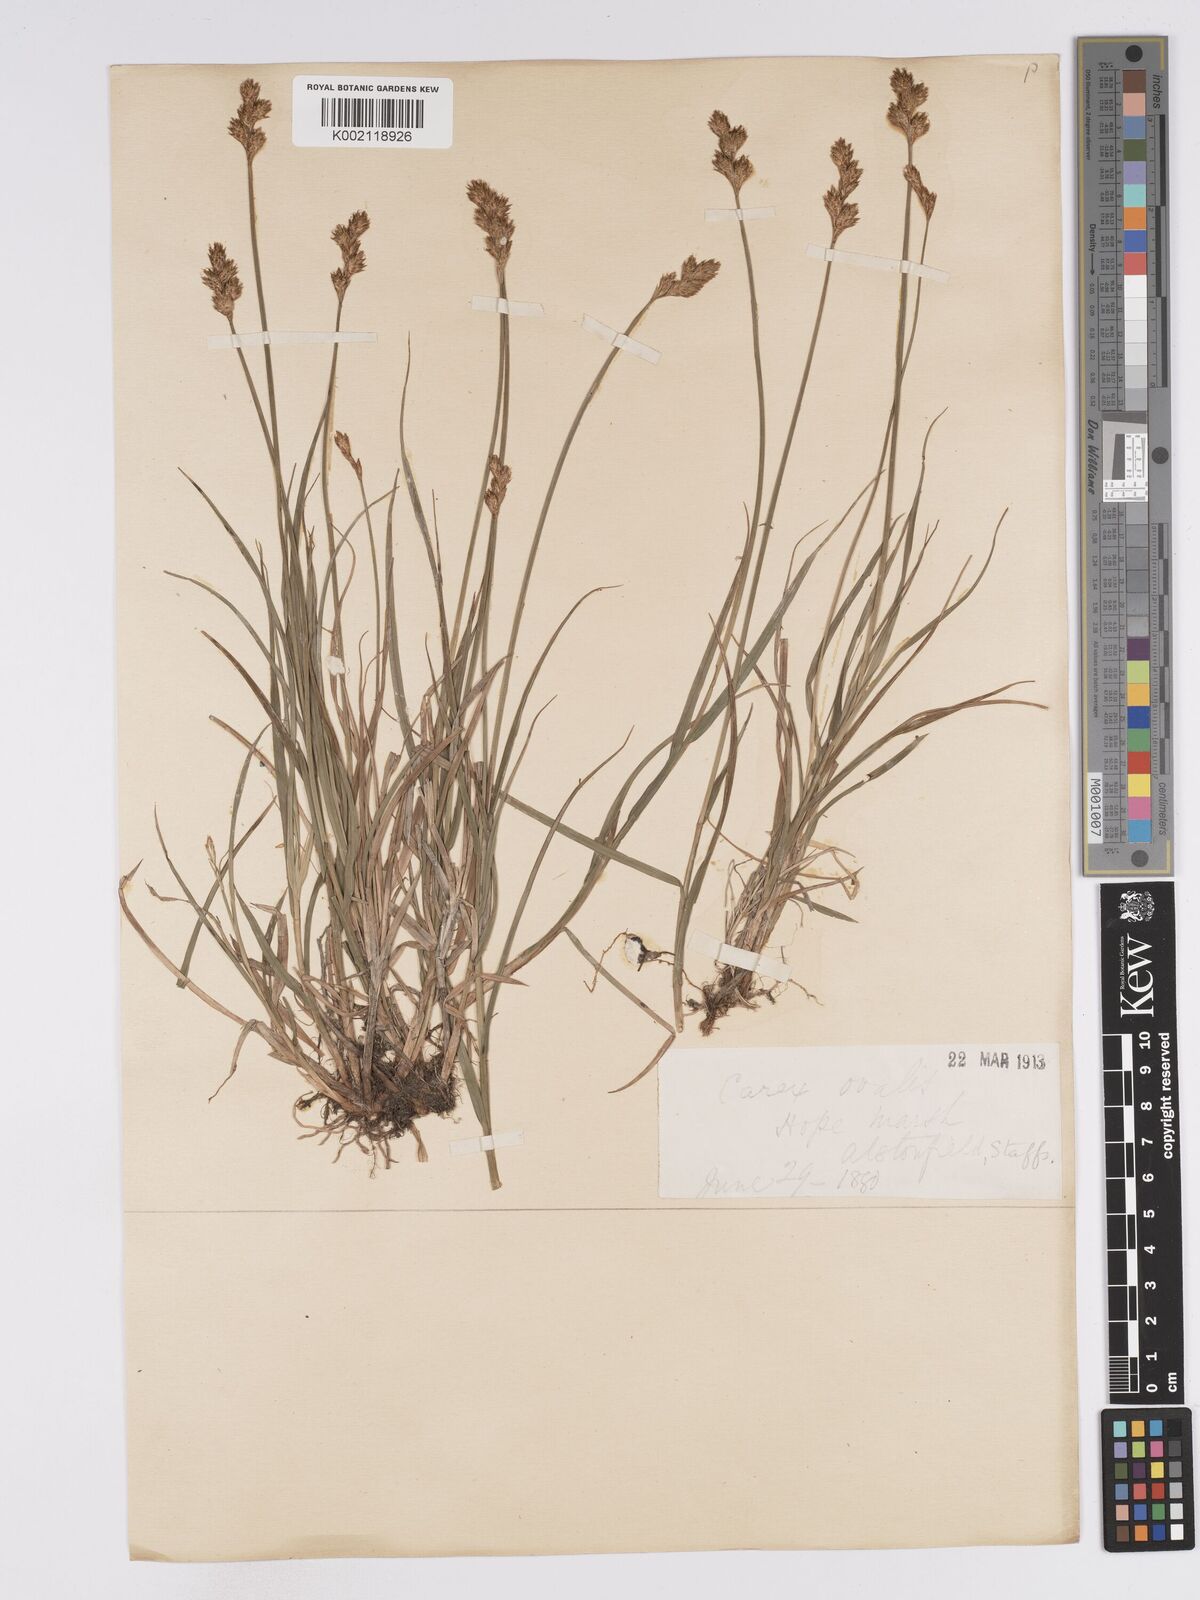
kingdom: Plantae
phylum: Tracheophyta
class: Liliopsida
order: Poales
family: Cyperaceae
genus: Carex
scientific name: Carex leporina
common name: Oval sedge
